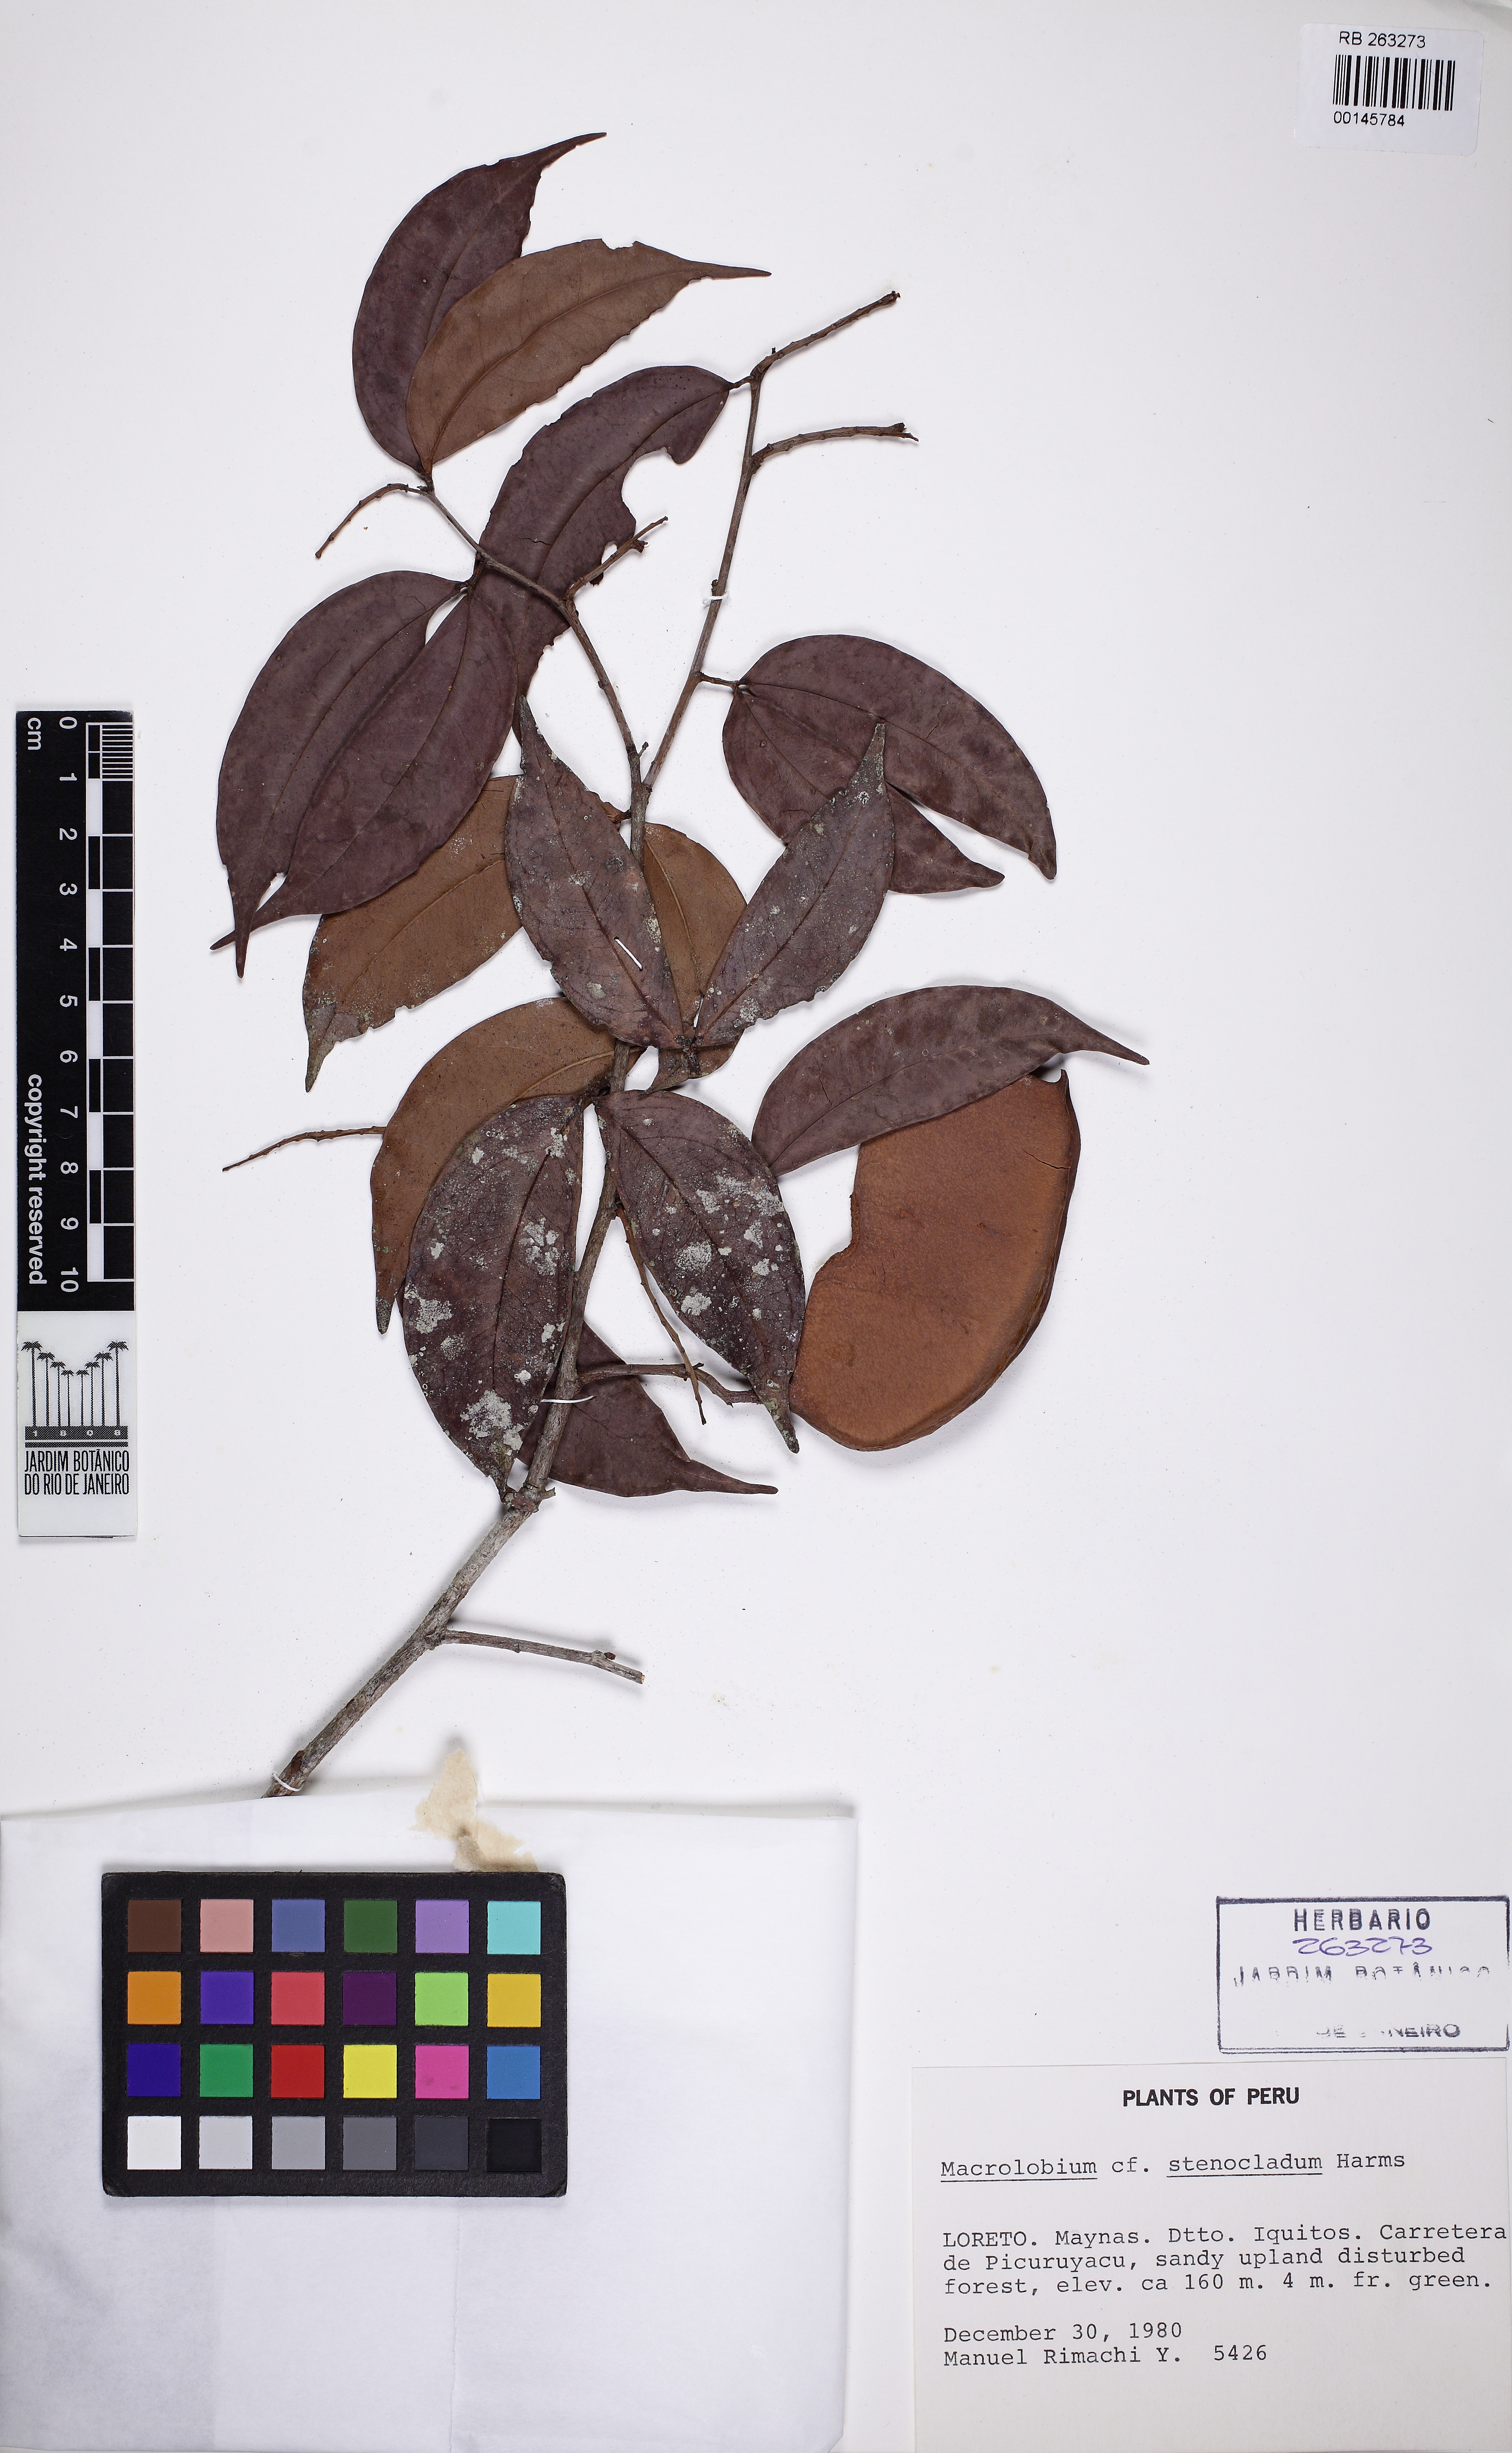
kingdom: Plantae
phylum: Tracheophyta
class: Magnoliopsida
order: Fabales
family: Fabaceae
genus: Macrolobium
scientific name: Macrolobium stenocladum
